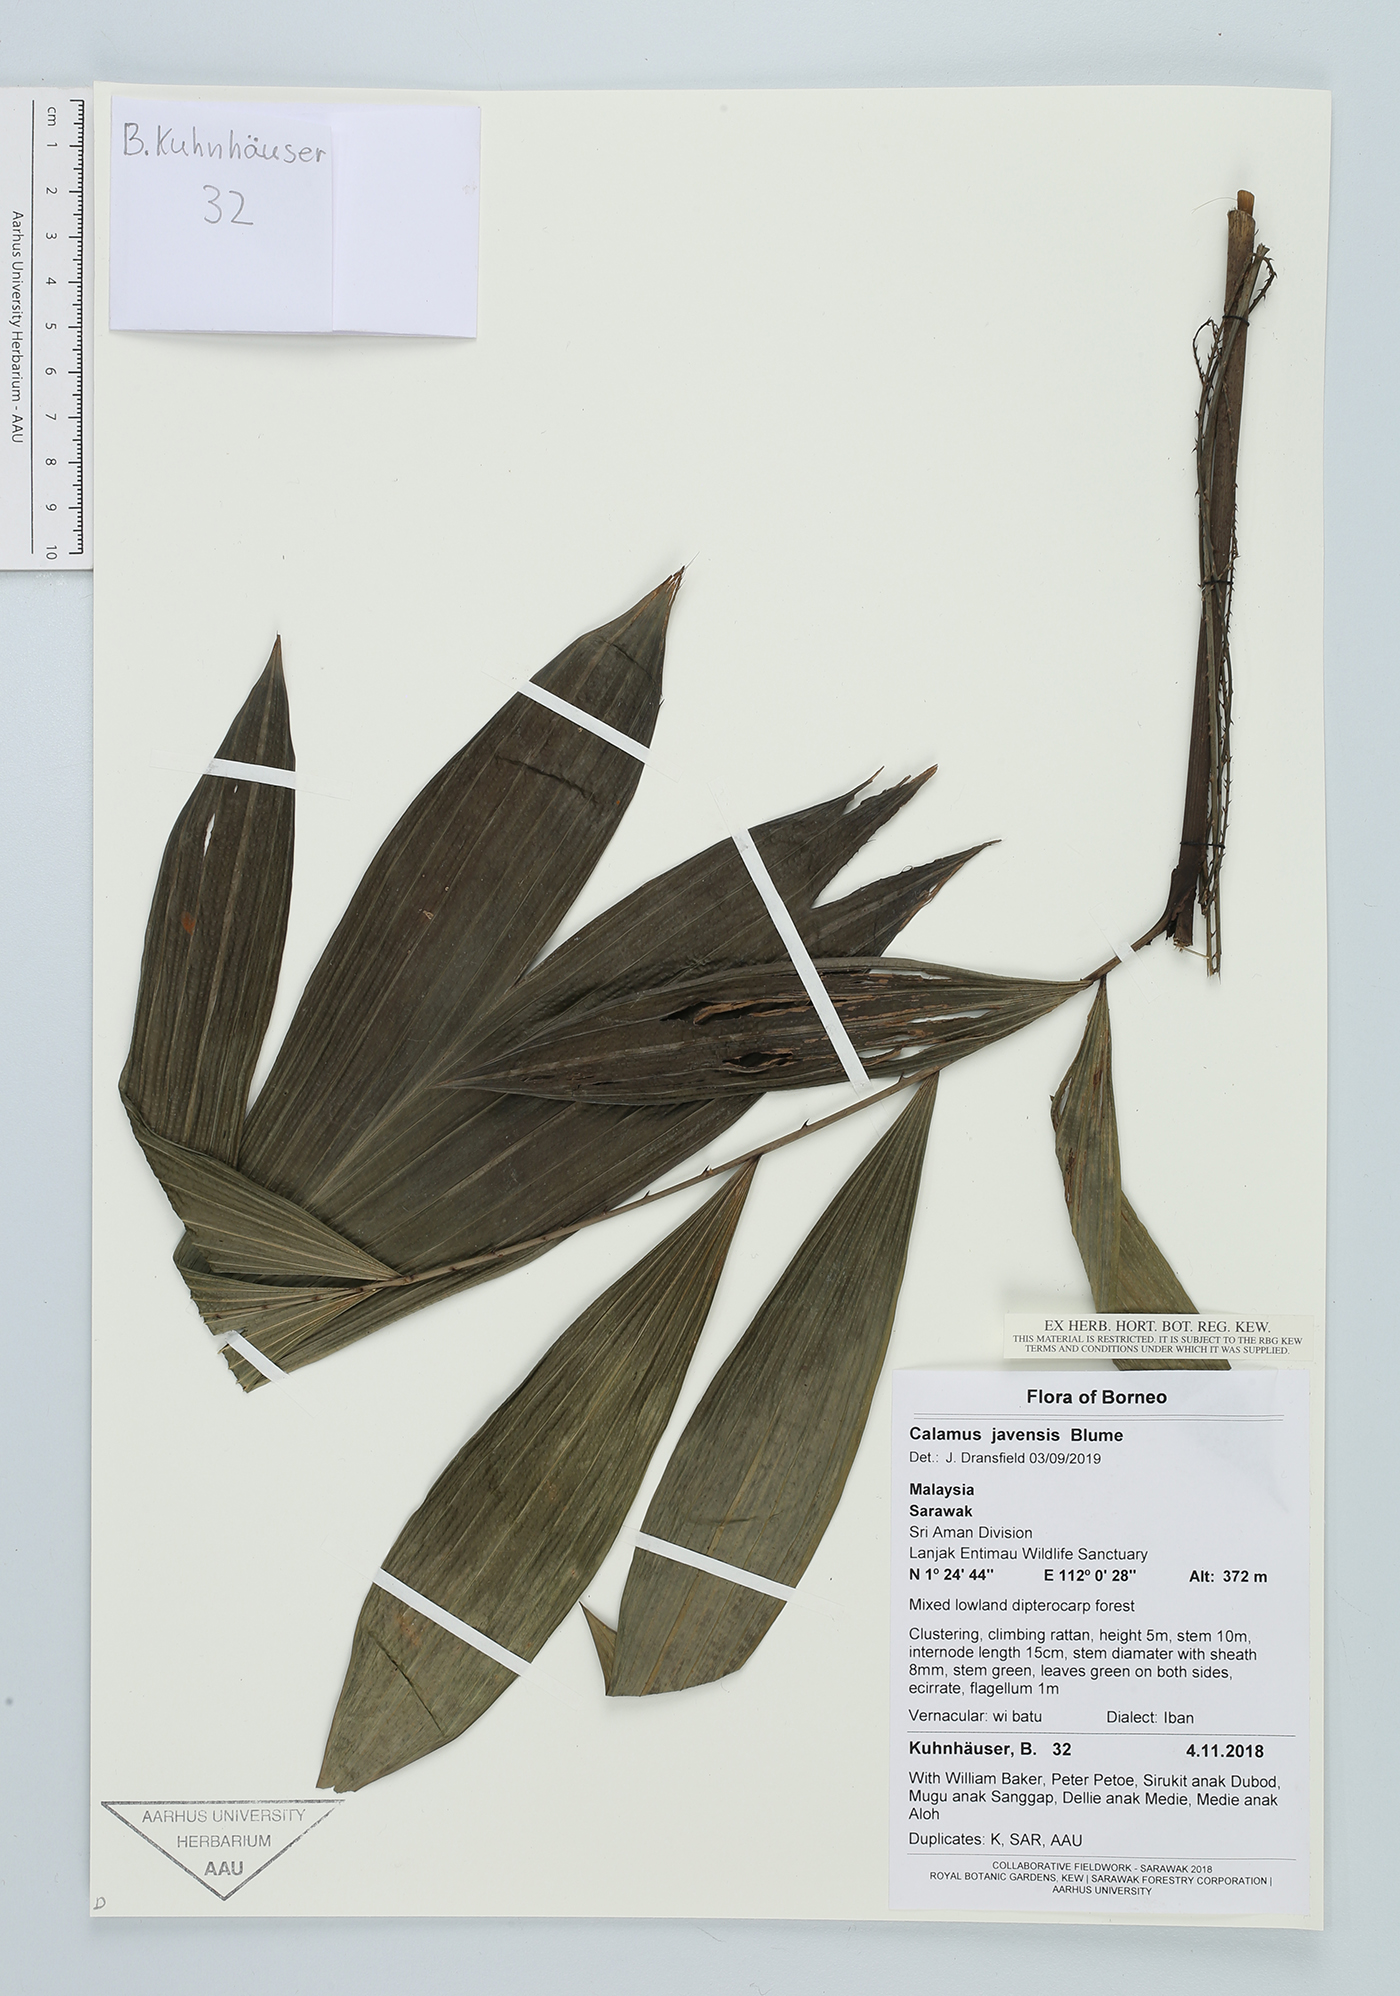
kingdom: Plantae
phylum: Tracheophyta
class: Liliopsida
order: Arecales
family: Arecaceae
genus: Calamus
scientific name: Calamus javensis
